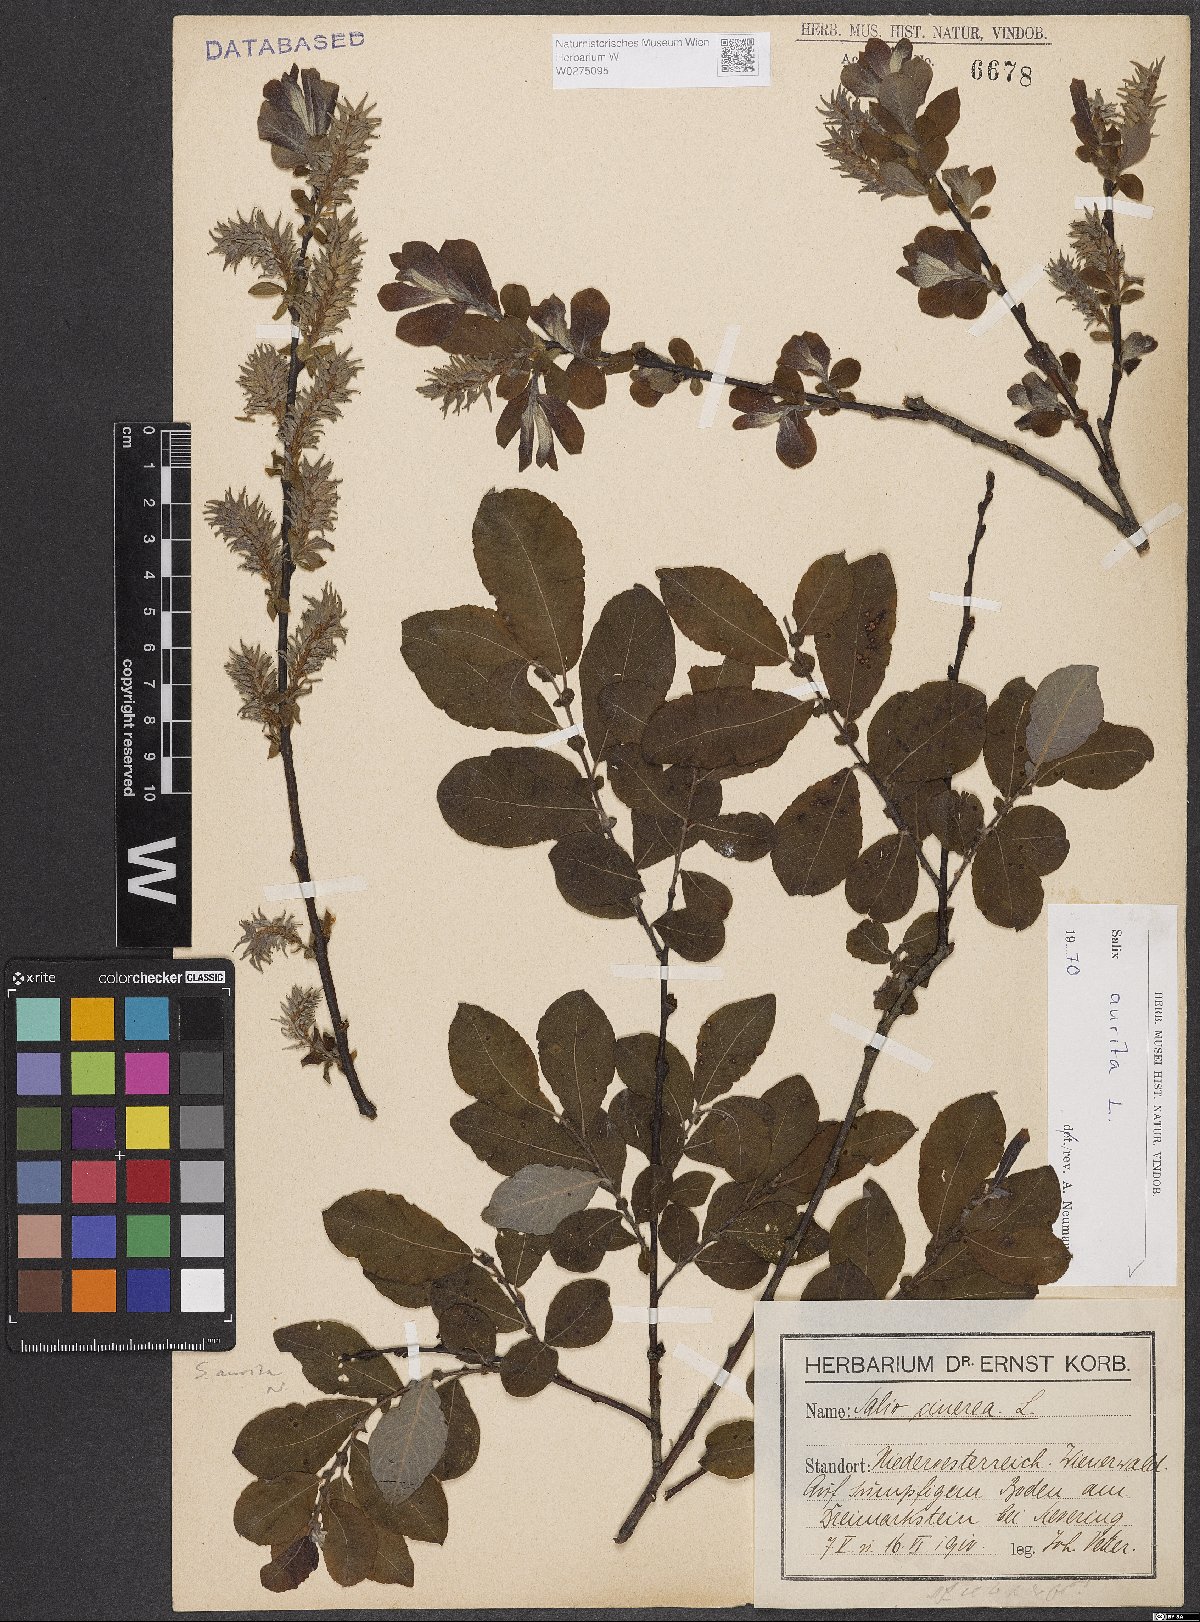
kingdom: Plantae
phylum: Tracheophyta
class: Magnoliopsida
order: Malpighiales
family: Salicaceae
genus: Salix
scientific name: Salix aurita
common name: Eared willow
